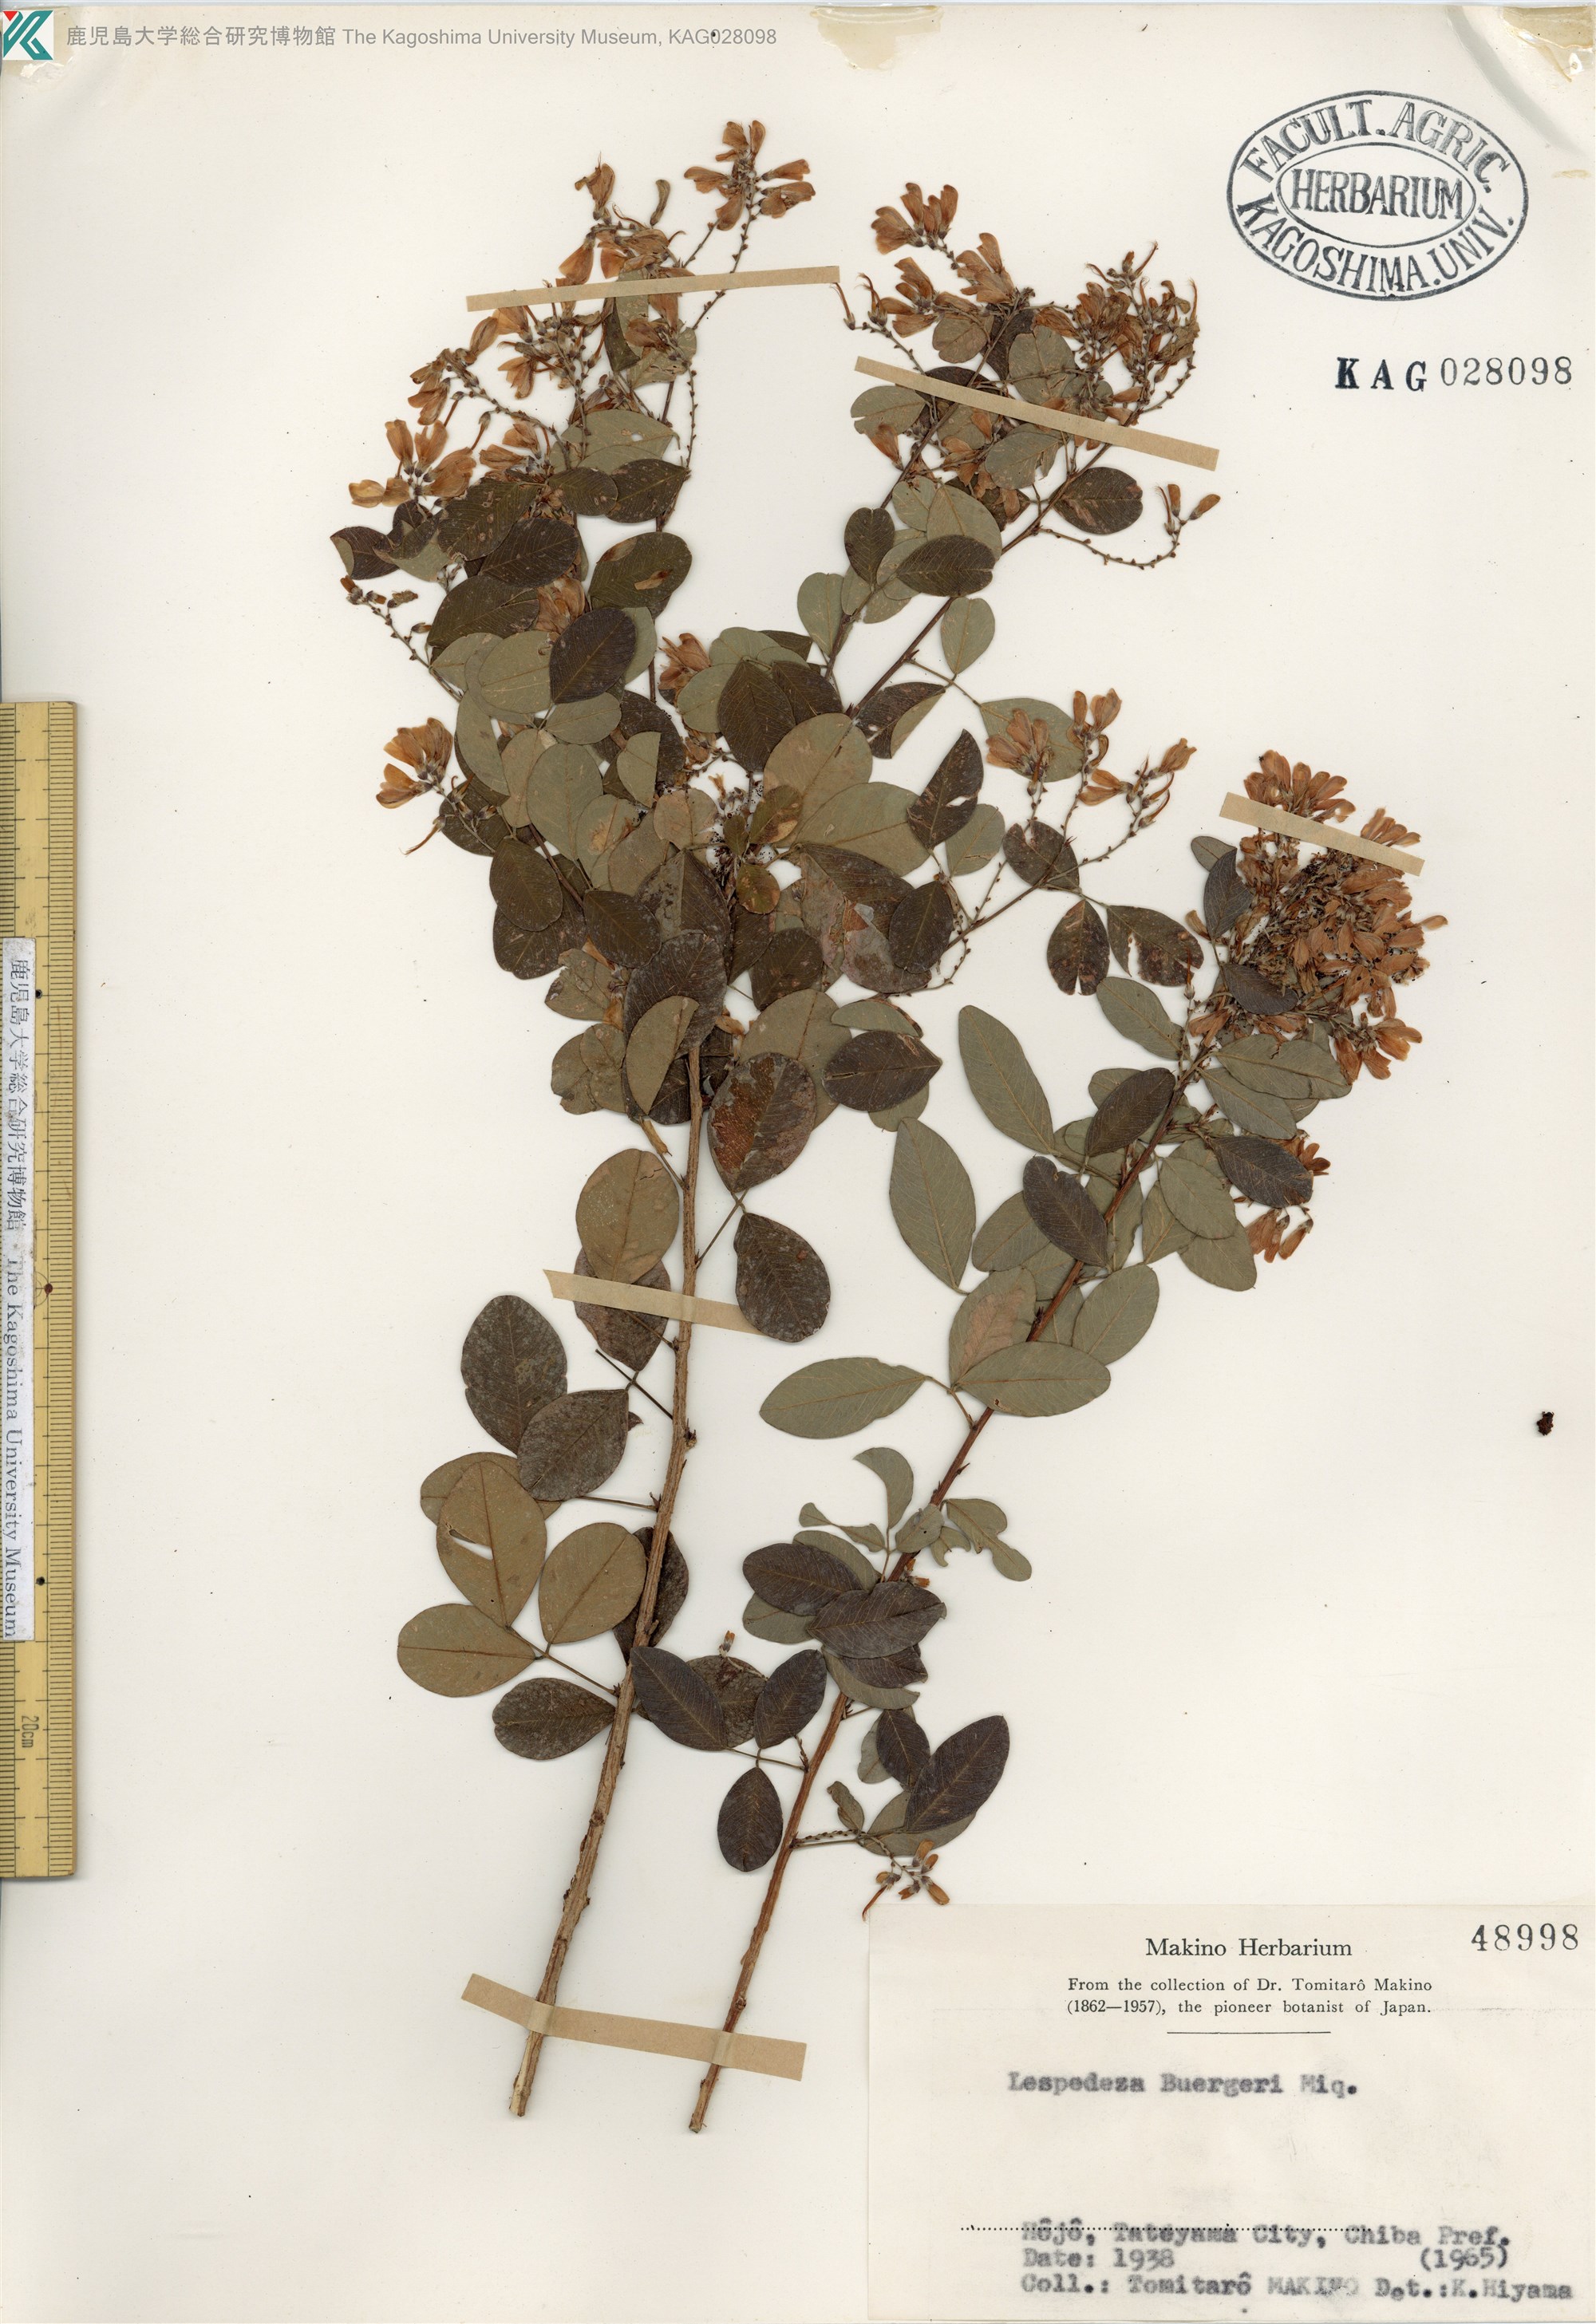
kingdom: Plantae
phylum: Tracheophyta
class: Magnoliopsida
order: Fabales
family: Fabaceae
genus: Lespedeza
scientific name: Lespedeza buergeri
